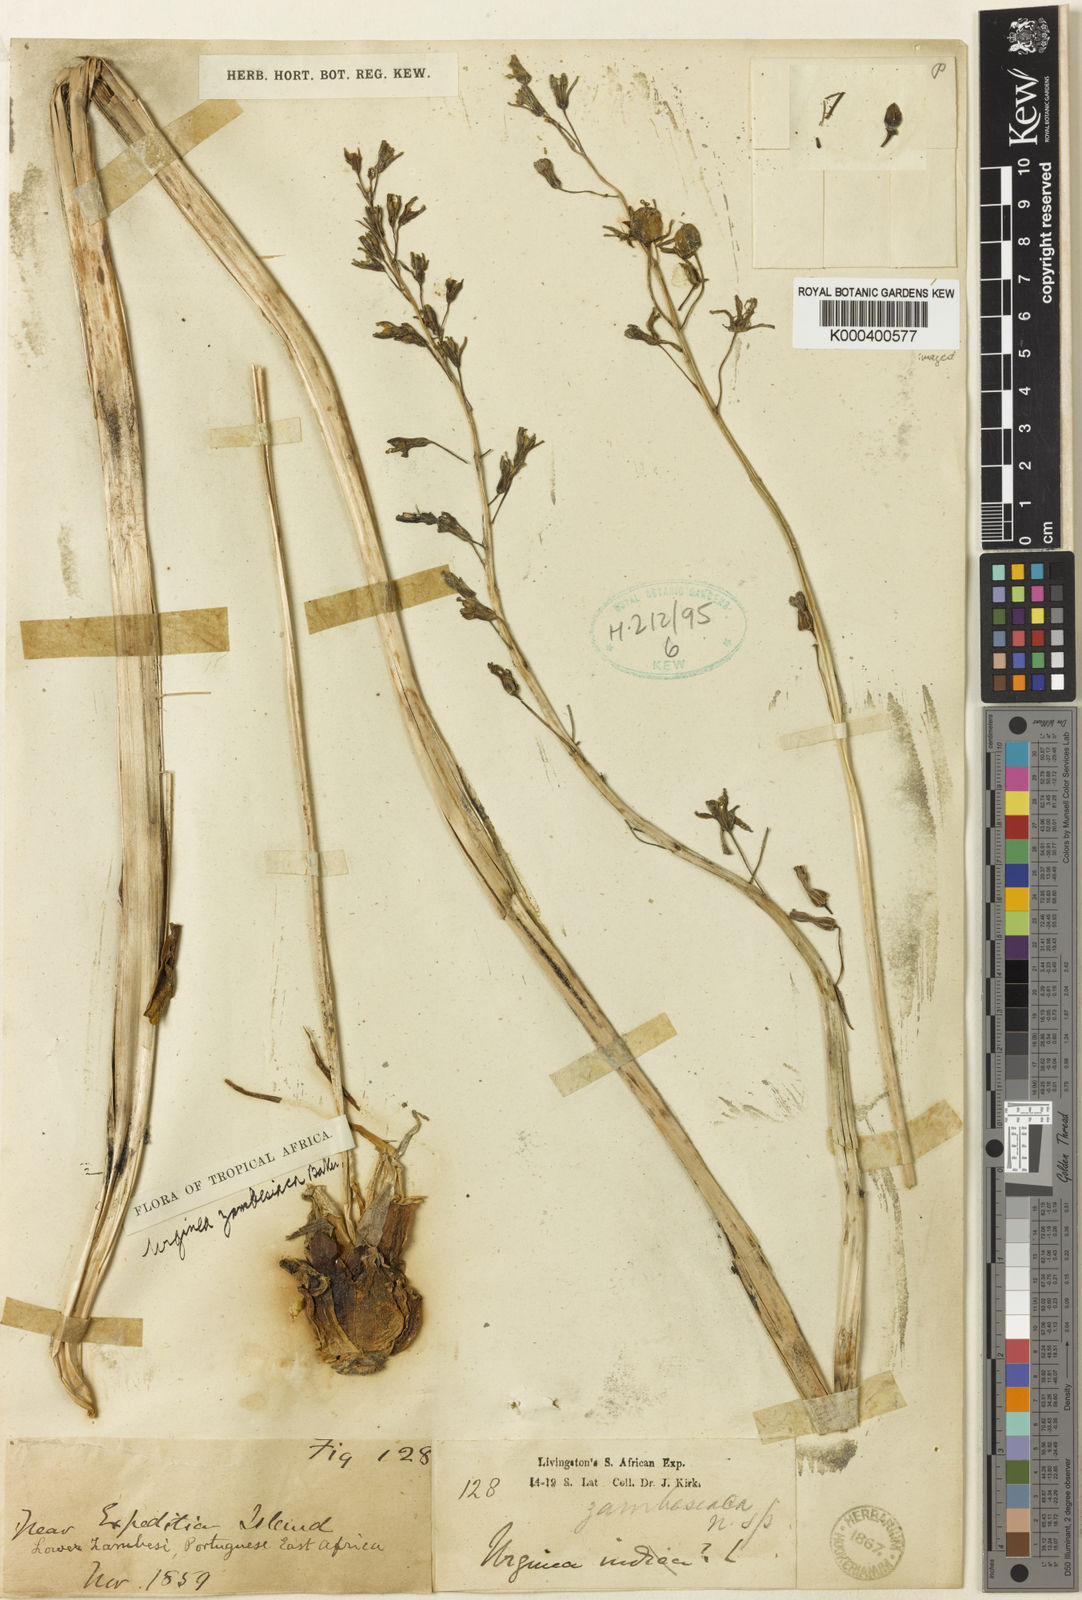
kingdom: Plantae
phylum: Tracheophyta
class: Liliopsida
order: Asparagales
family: Asparagaceae
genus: Drimia
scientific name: Drimia indica
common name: Indian-squill
